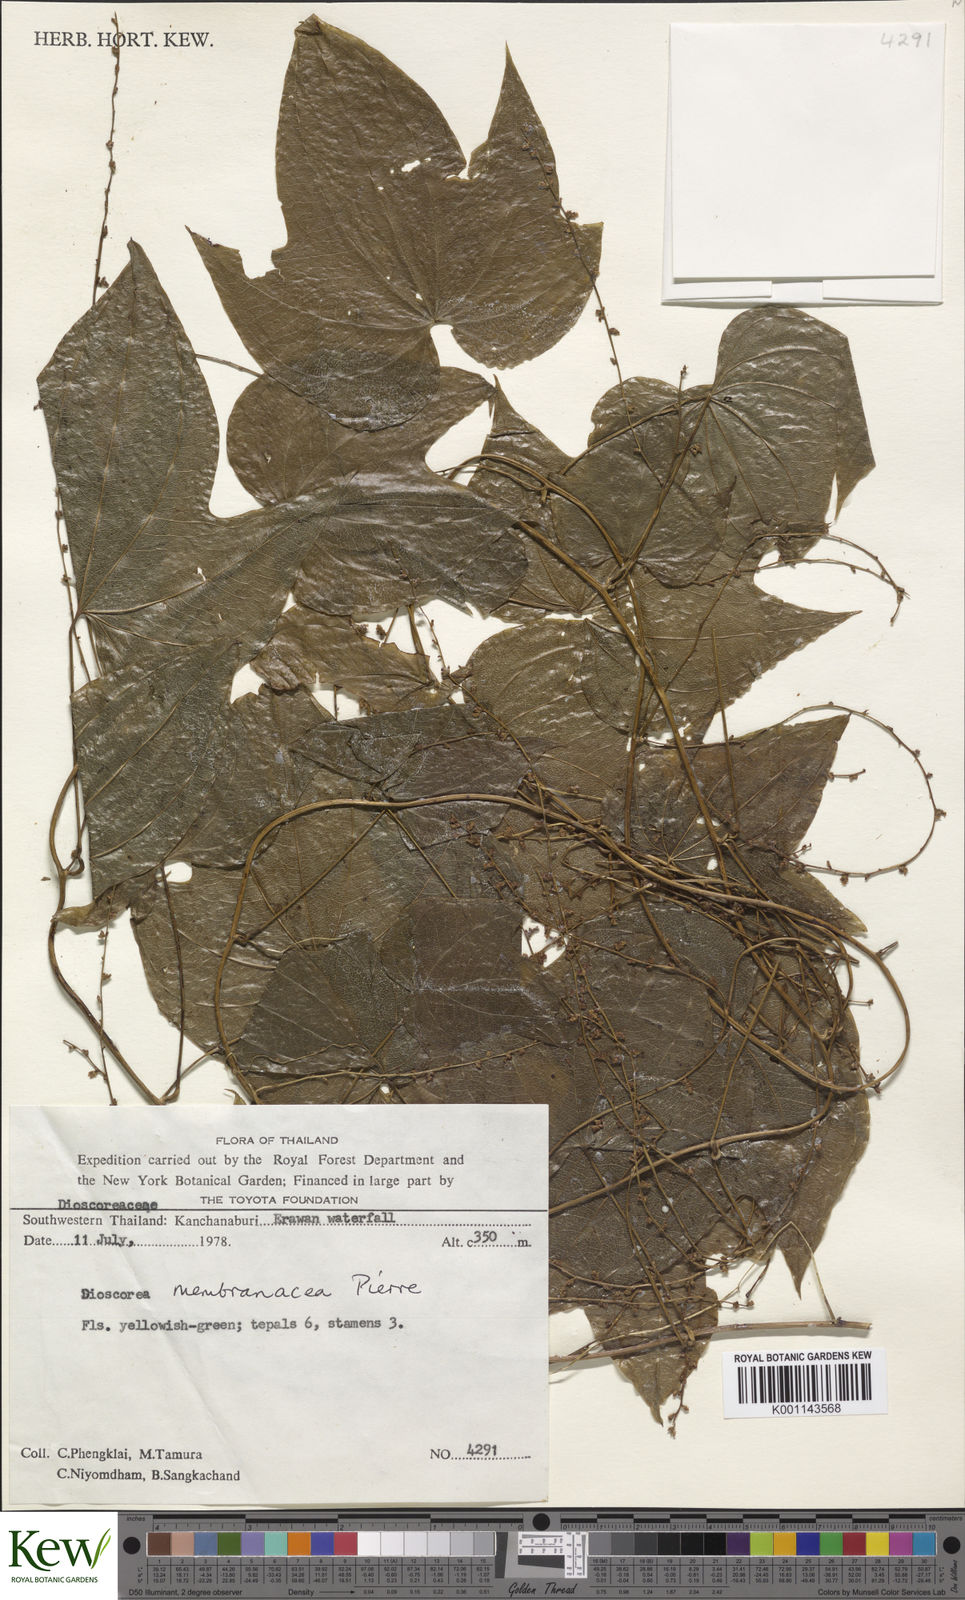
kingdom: Plantae
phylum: Tracheophyta
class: Liliopsida
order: Dioscoreales
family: Dioscoreaceae
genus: Dioscorea
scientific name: Dioscorea membranacea
